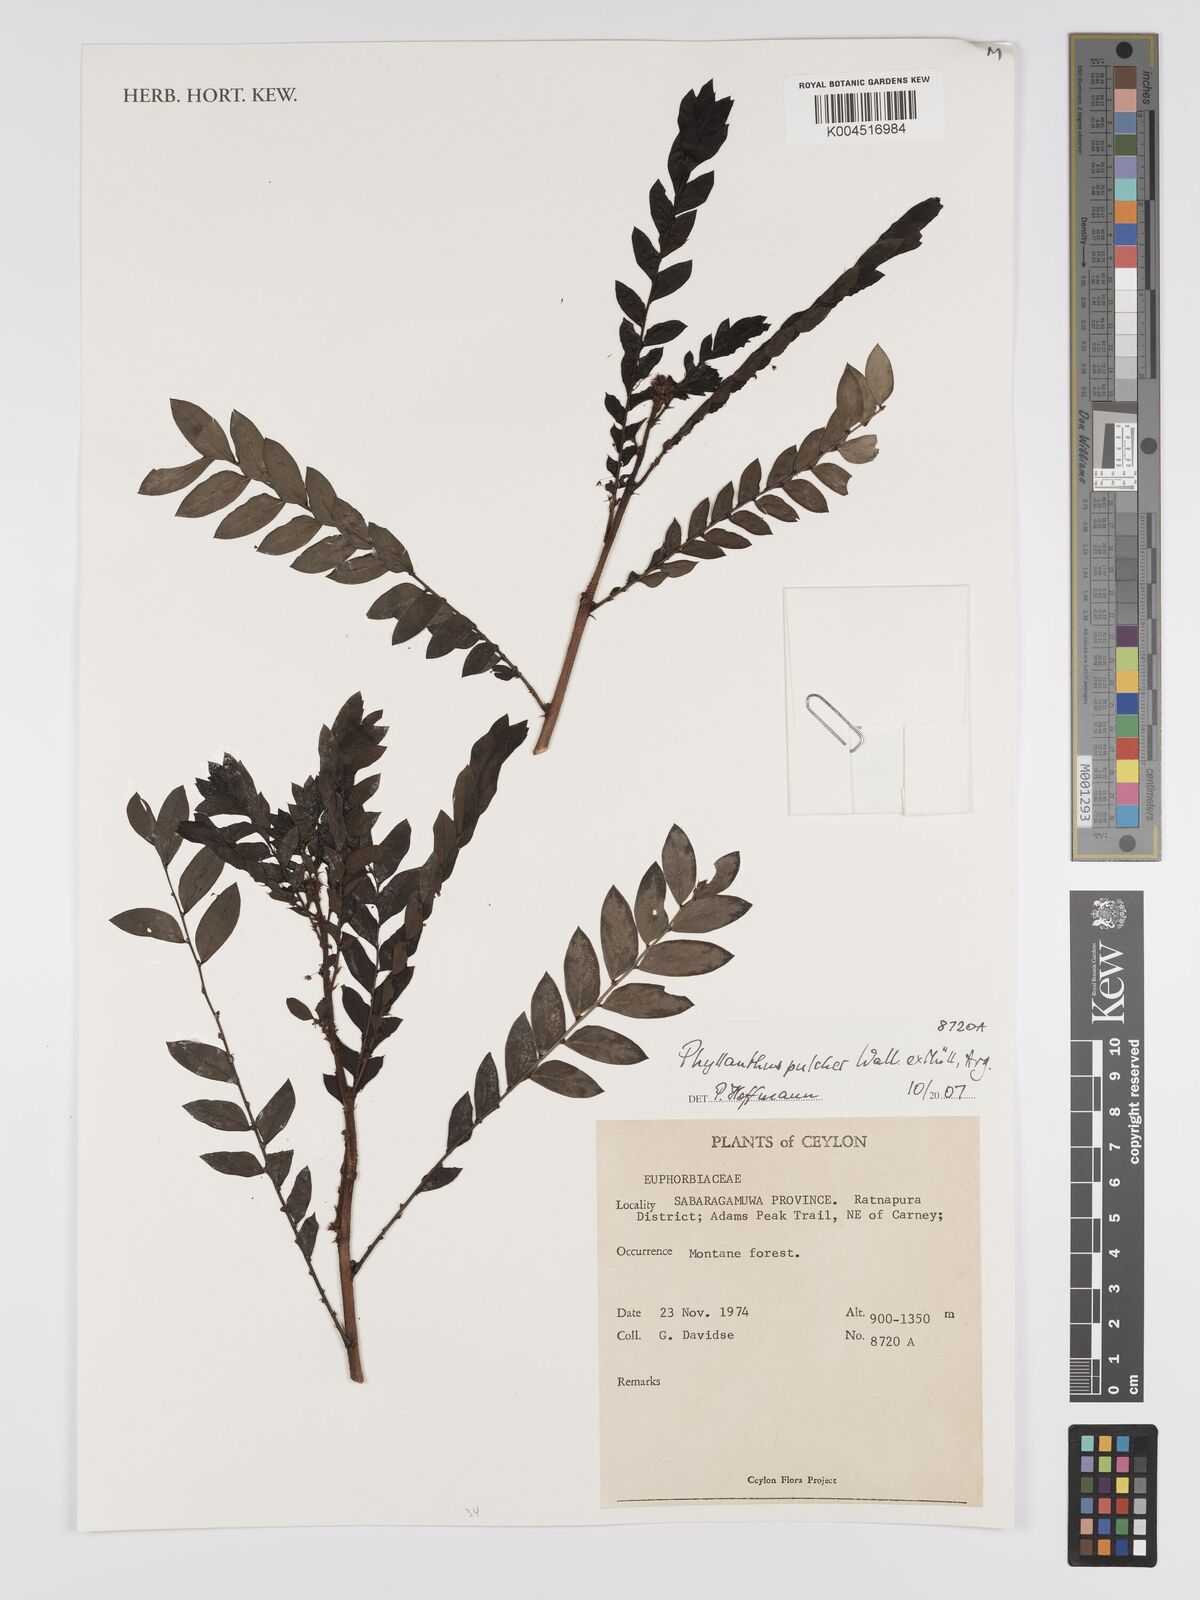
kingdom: Plantae
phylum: Tracheophyta
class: Magnoliopsida
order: Malpighiales
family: Phyllanthaceae
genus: Phyllanthus
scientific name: Phyllanthus pulcher
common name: Dragon-of-the-world
